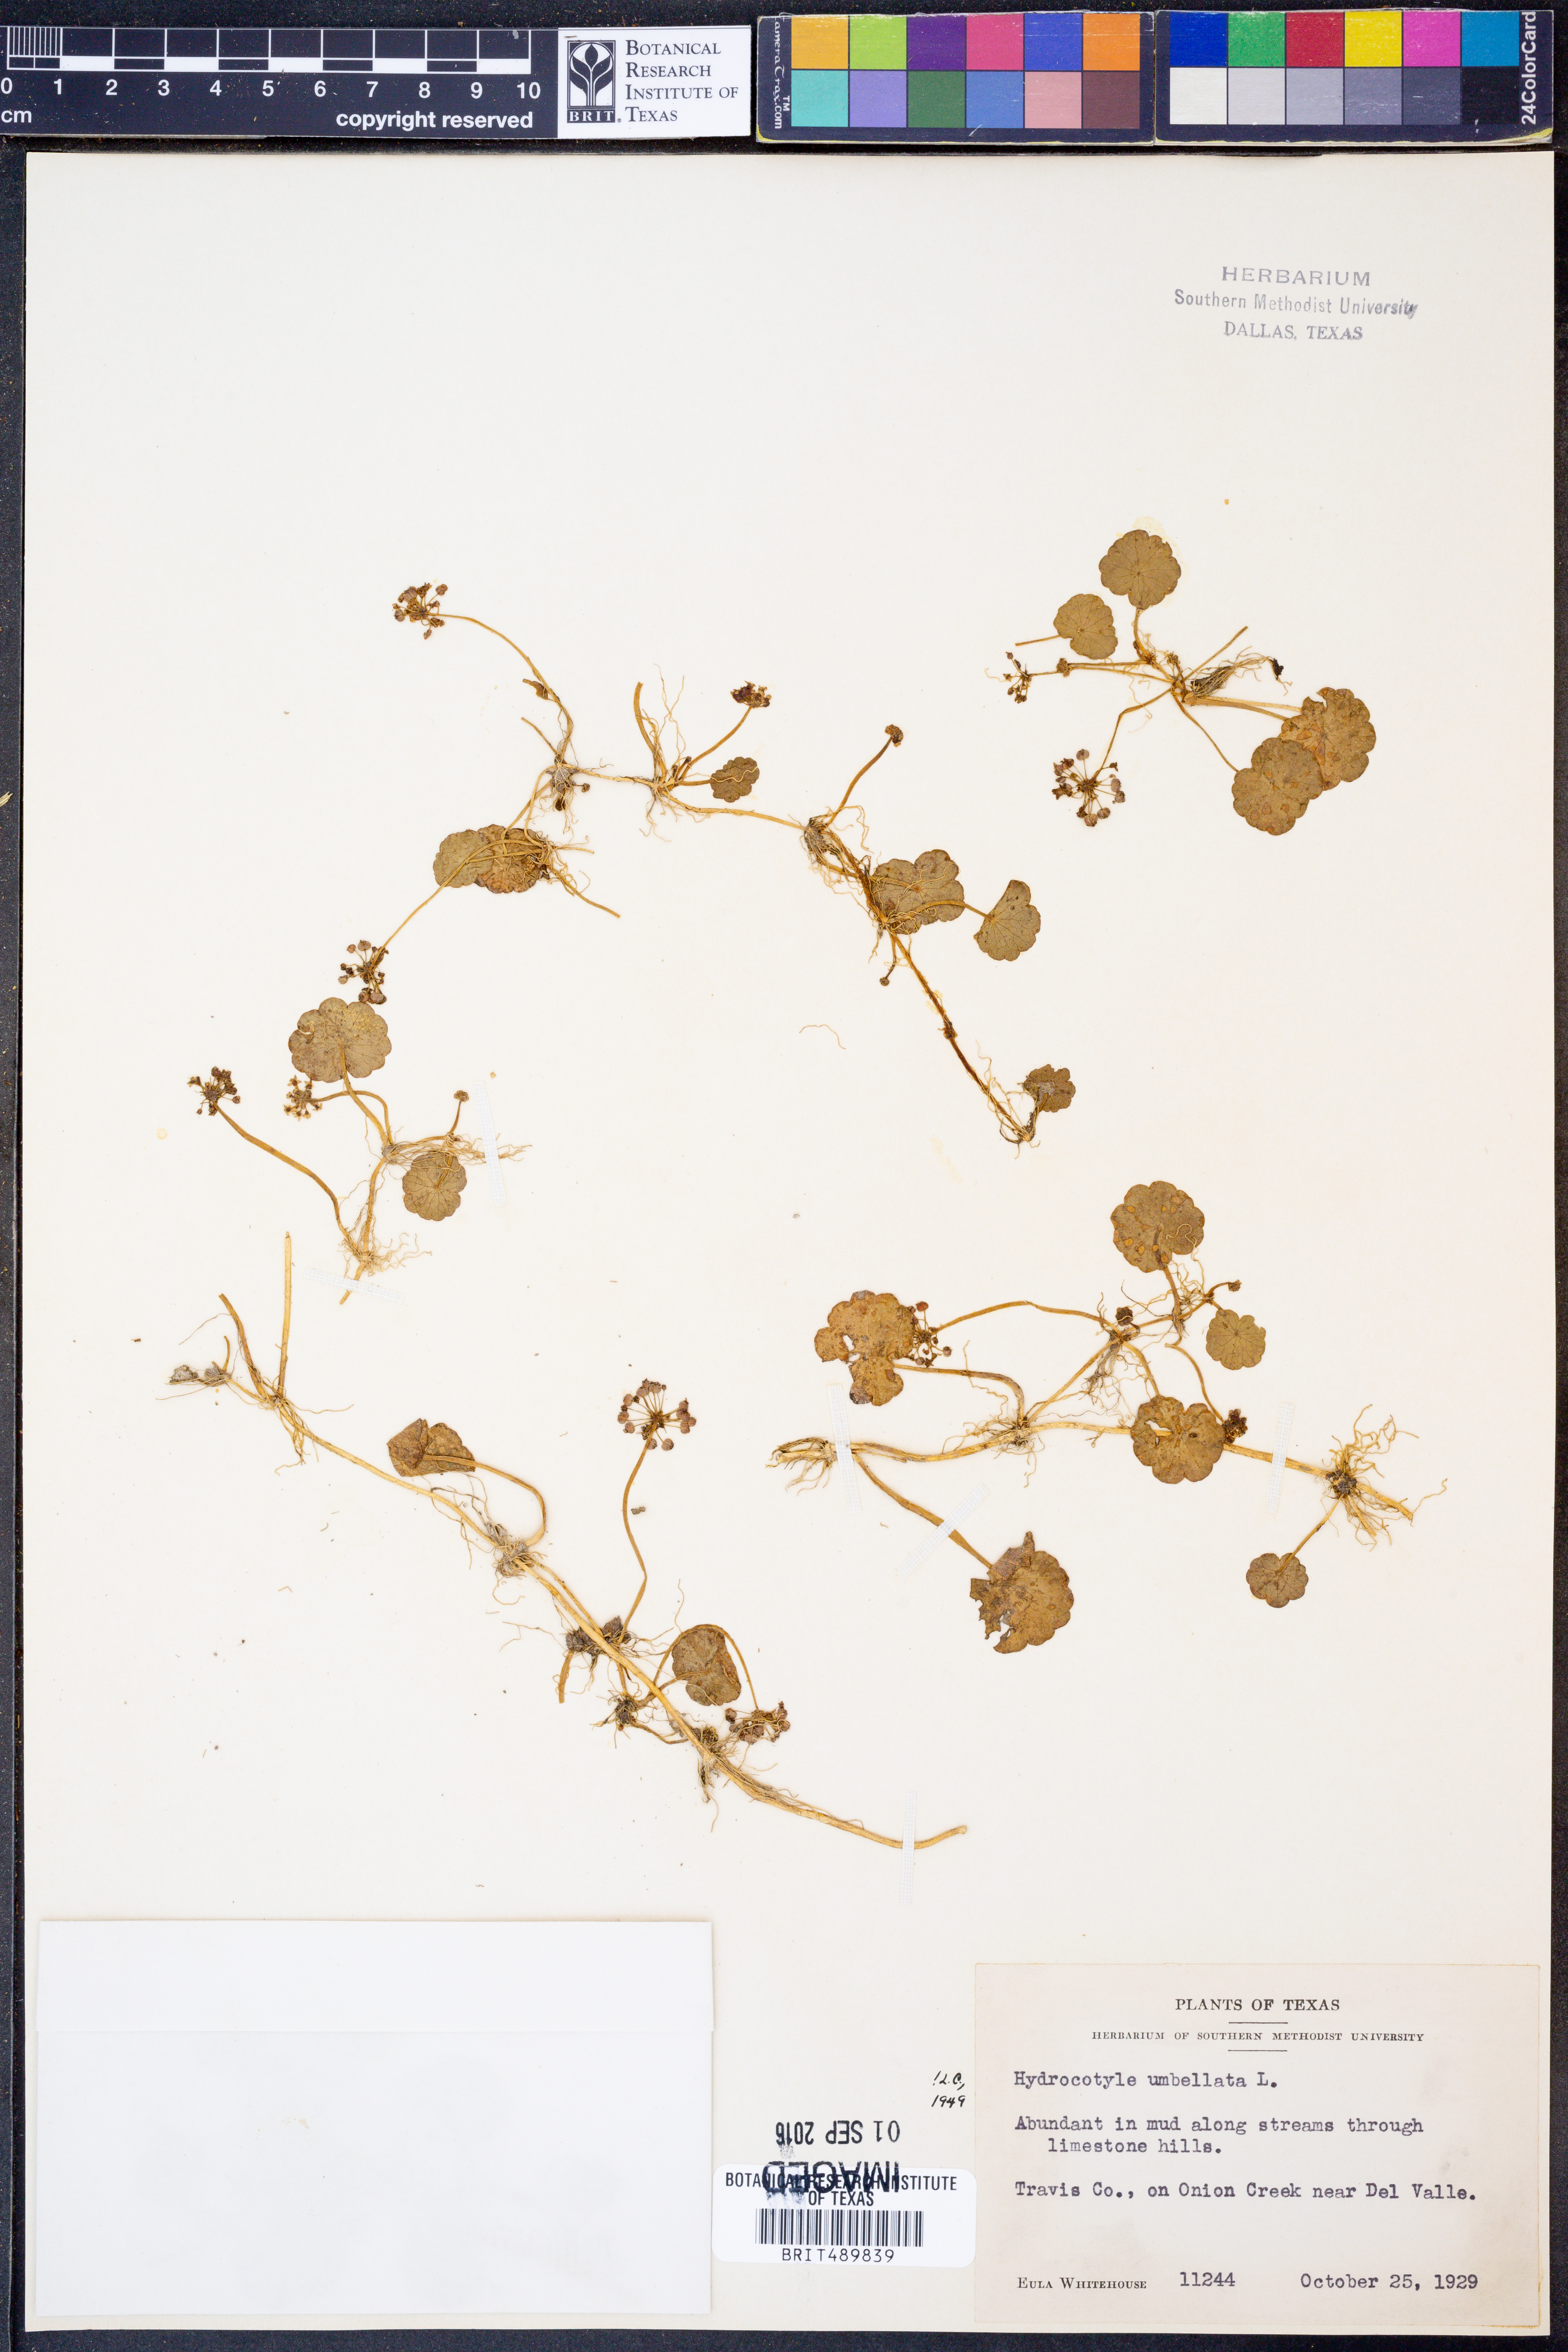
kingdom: Plantae
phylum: Tracheophyta
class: Magnoliopsida
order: Apiales
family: Araliaceae
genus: Hydrocotyle
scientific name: Hydrocotyle umbellata
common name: Water pennywort
